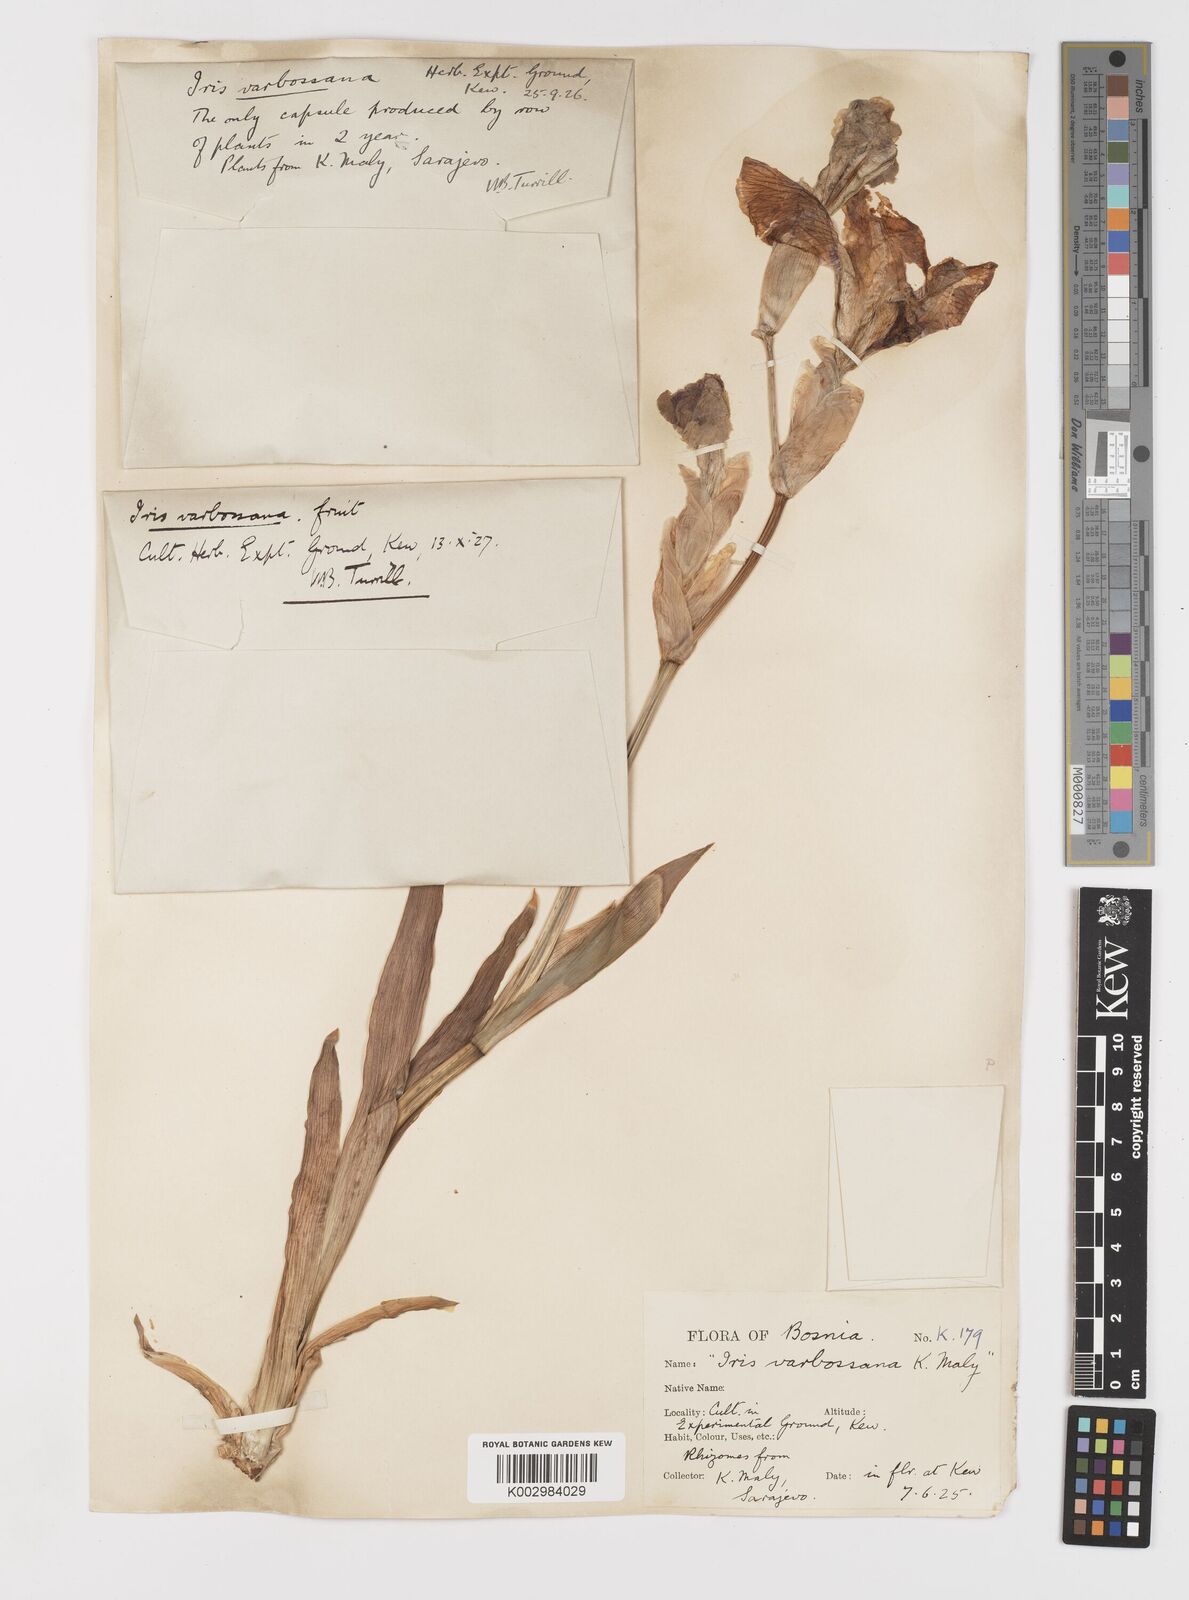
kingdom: Plantae
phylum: Tracheophyta
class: Liliopsida
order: Asparagales
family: Iridaceae
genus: Iris
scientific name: Iris germanica
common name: German iris
